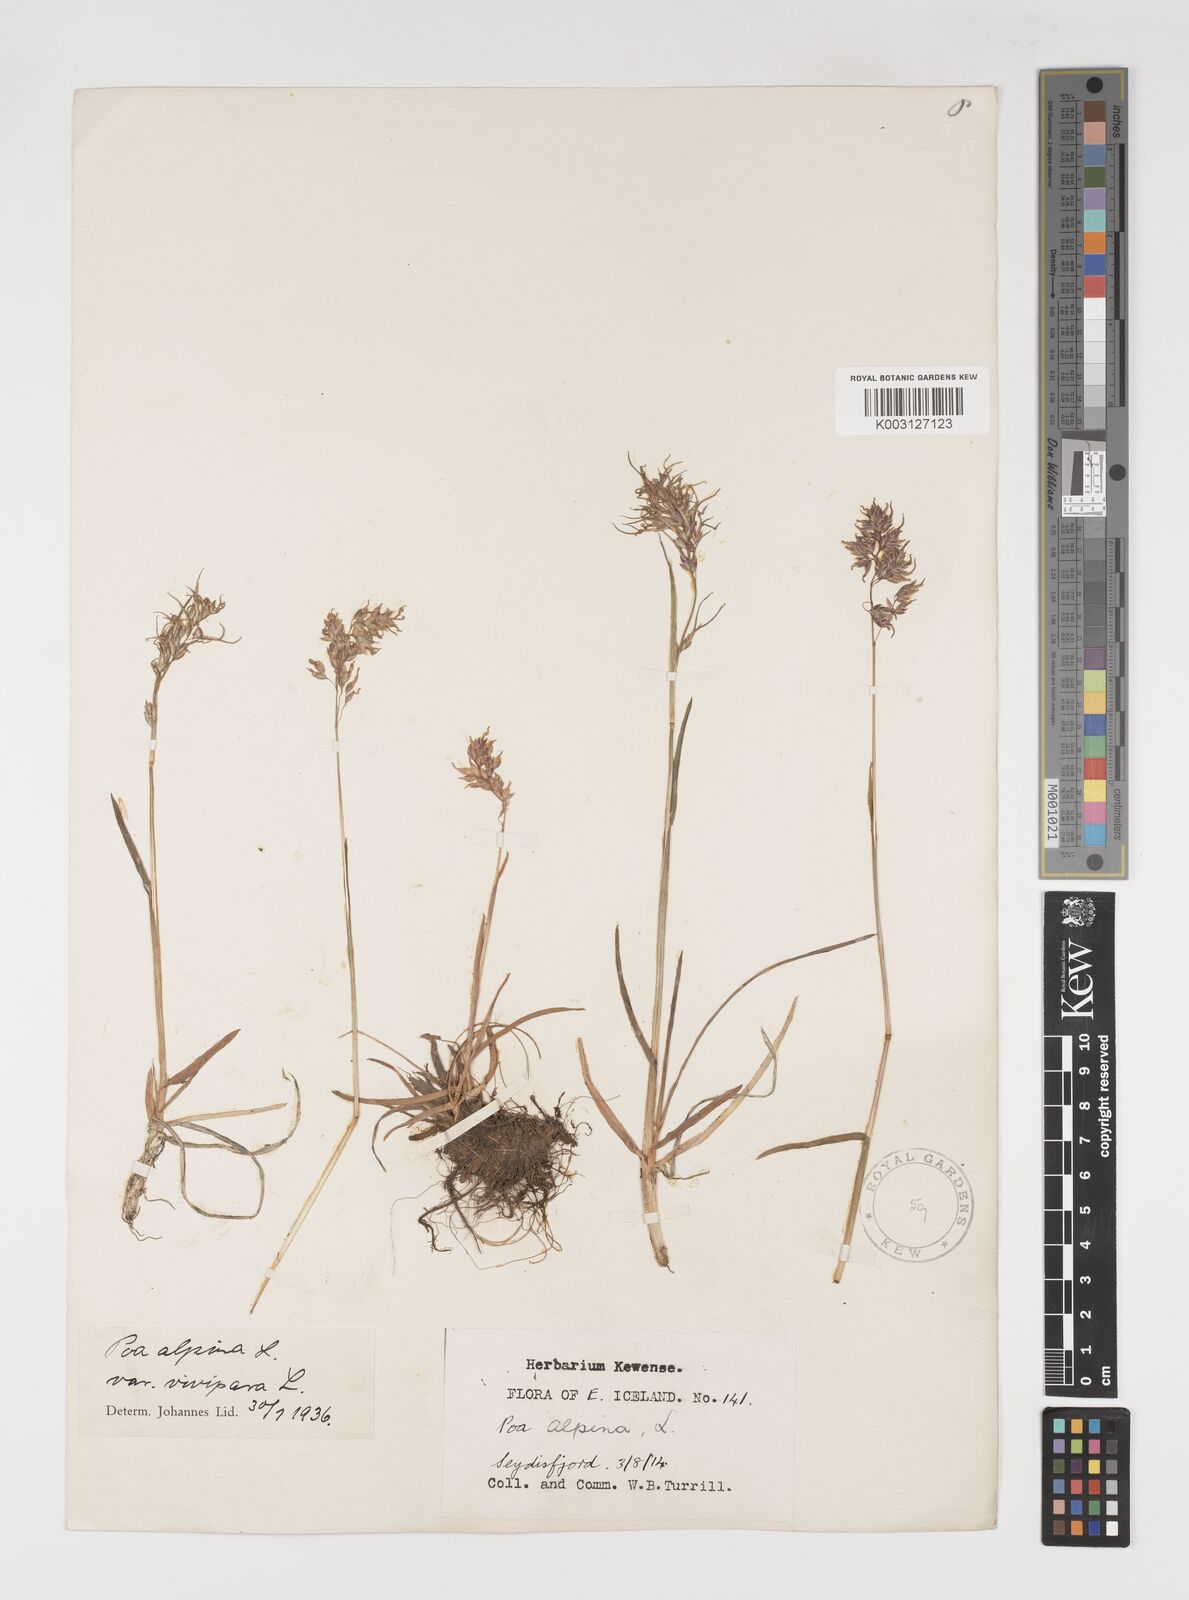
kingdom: Plantae
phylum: Tracheophyta
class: Liliopsida
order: Poales
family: Poaceae
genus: Poa
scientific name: Poa alpina
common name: Alpine bluegrass
